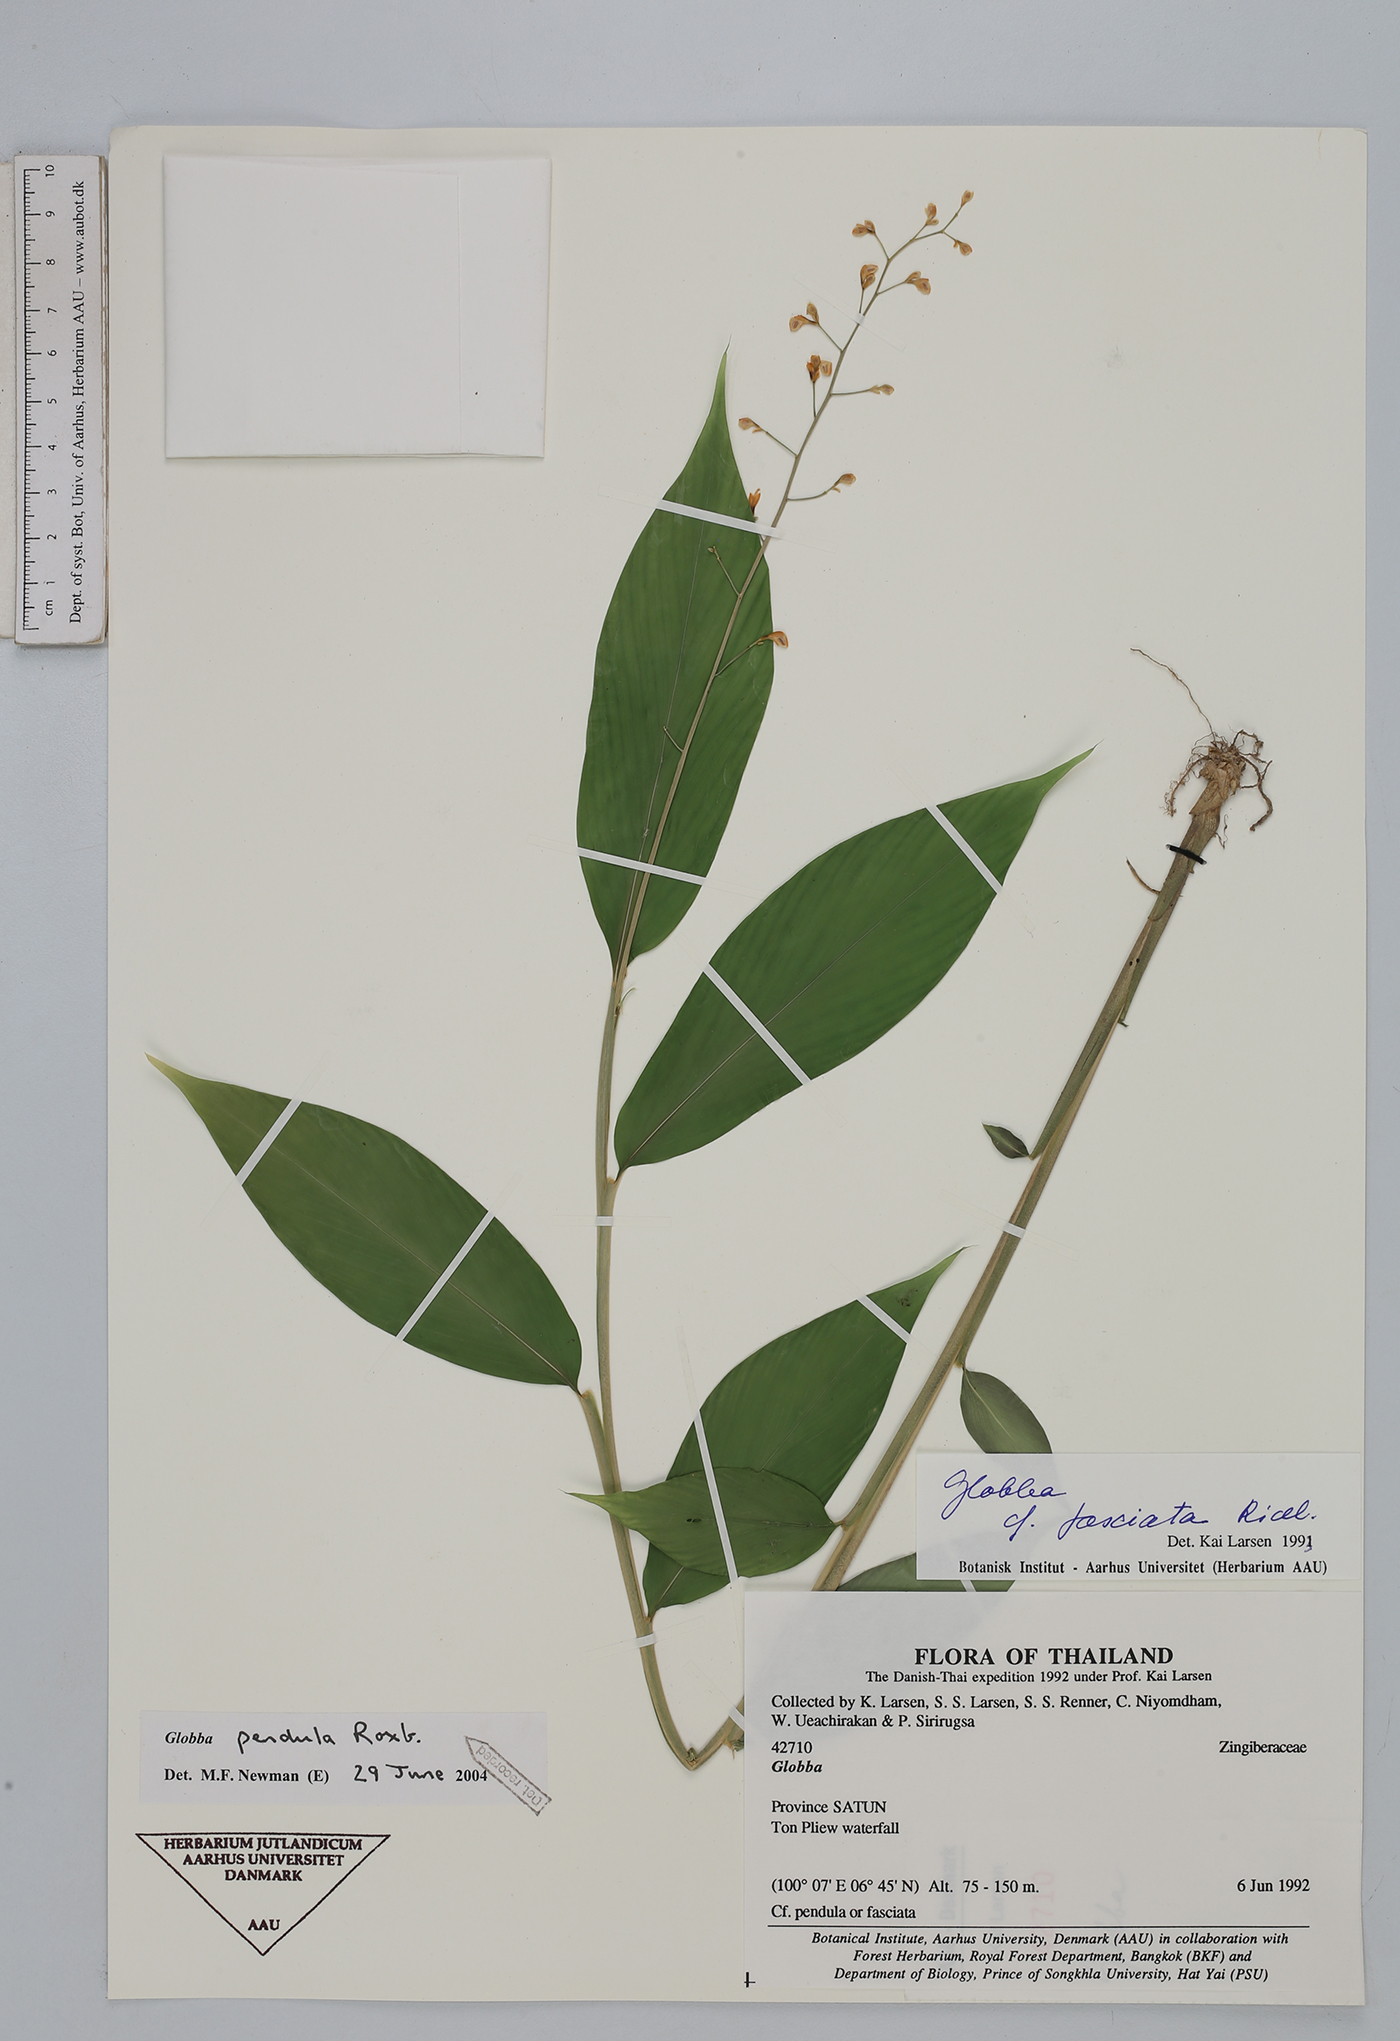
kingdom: Plantae
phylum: Tracheophyta
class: Liliopsida
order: Zingiberales
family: Zingiberaceae
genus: Globba
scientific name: Globba pendula
